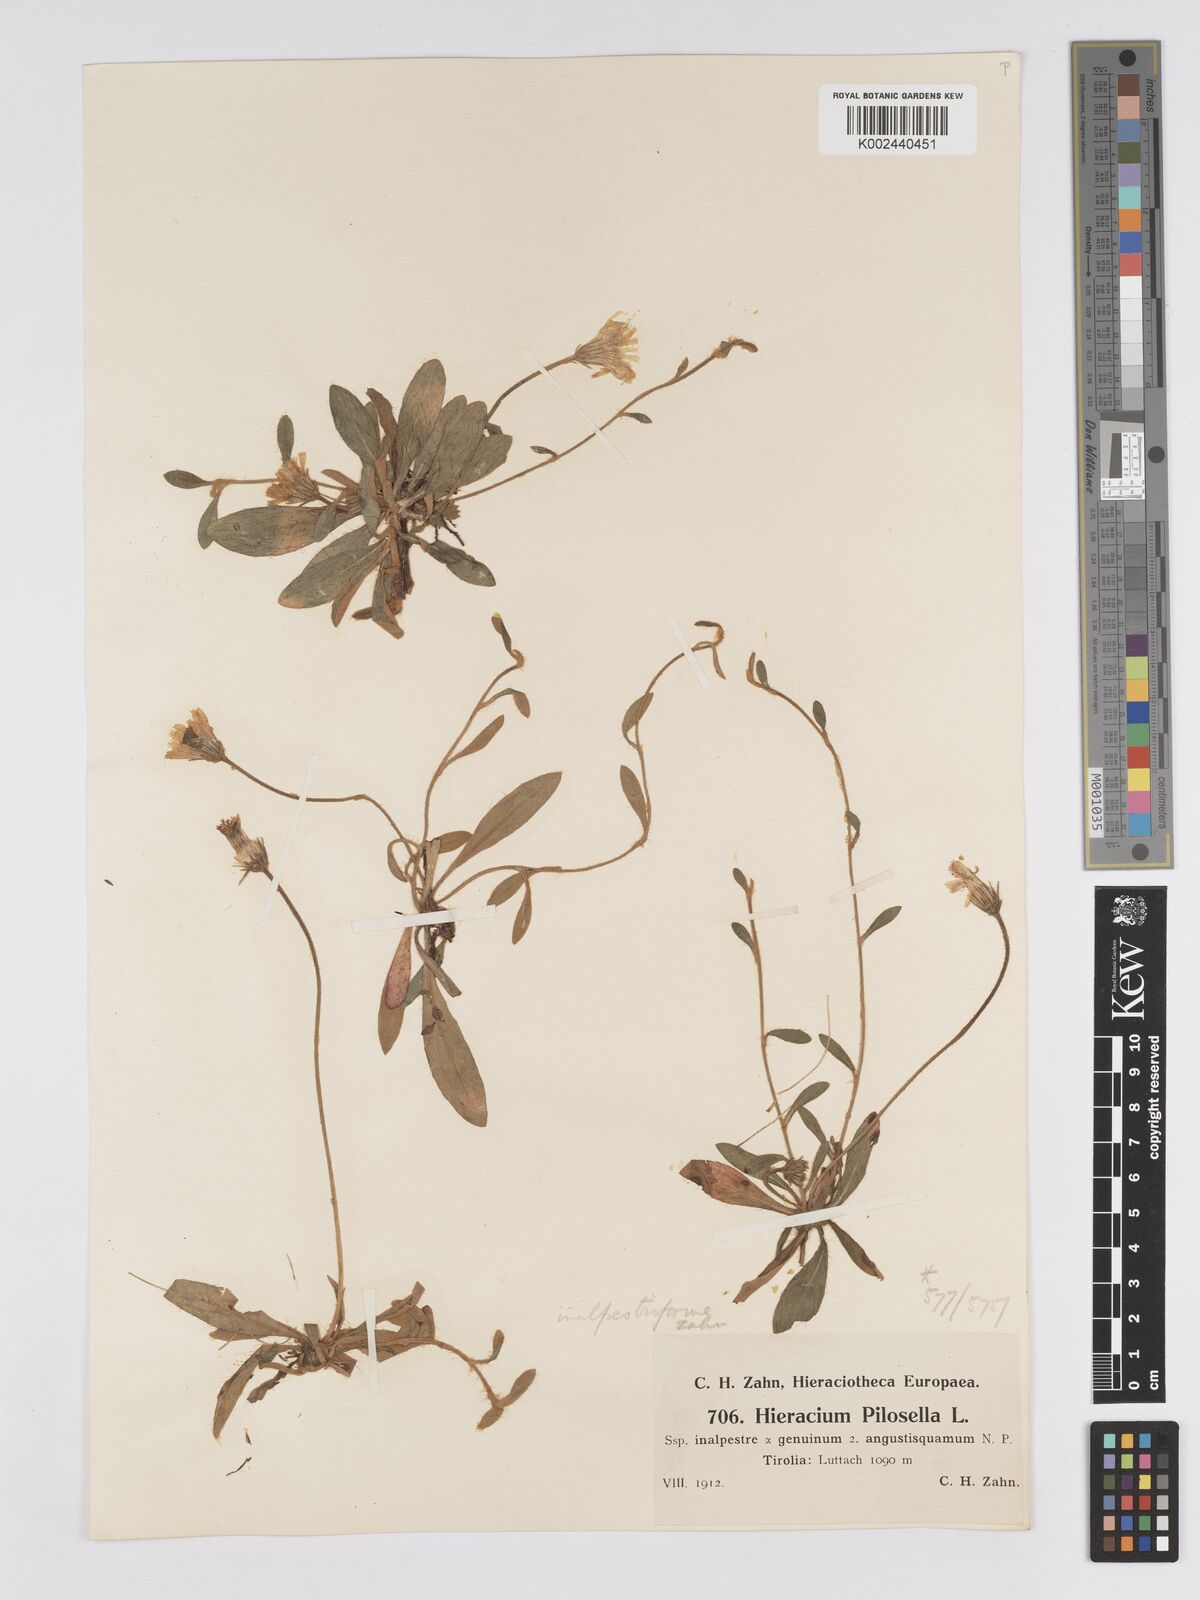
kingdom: Plantae
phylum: Tracheophyta
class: Magnoliopsida
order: Asterales
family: Asteraceae
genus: Pilosella
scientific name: Pilosella officinarum
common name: Mouse-ear hawkweed
